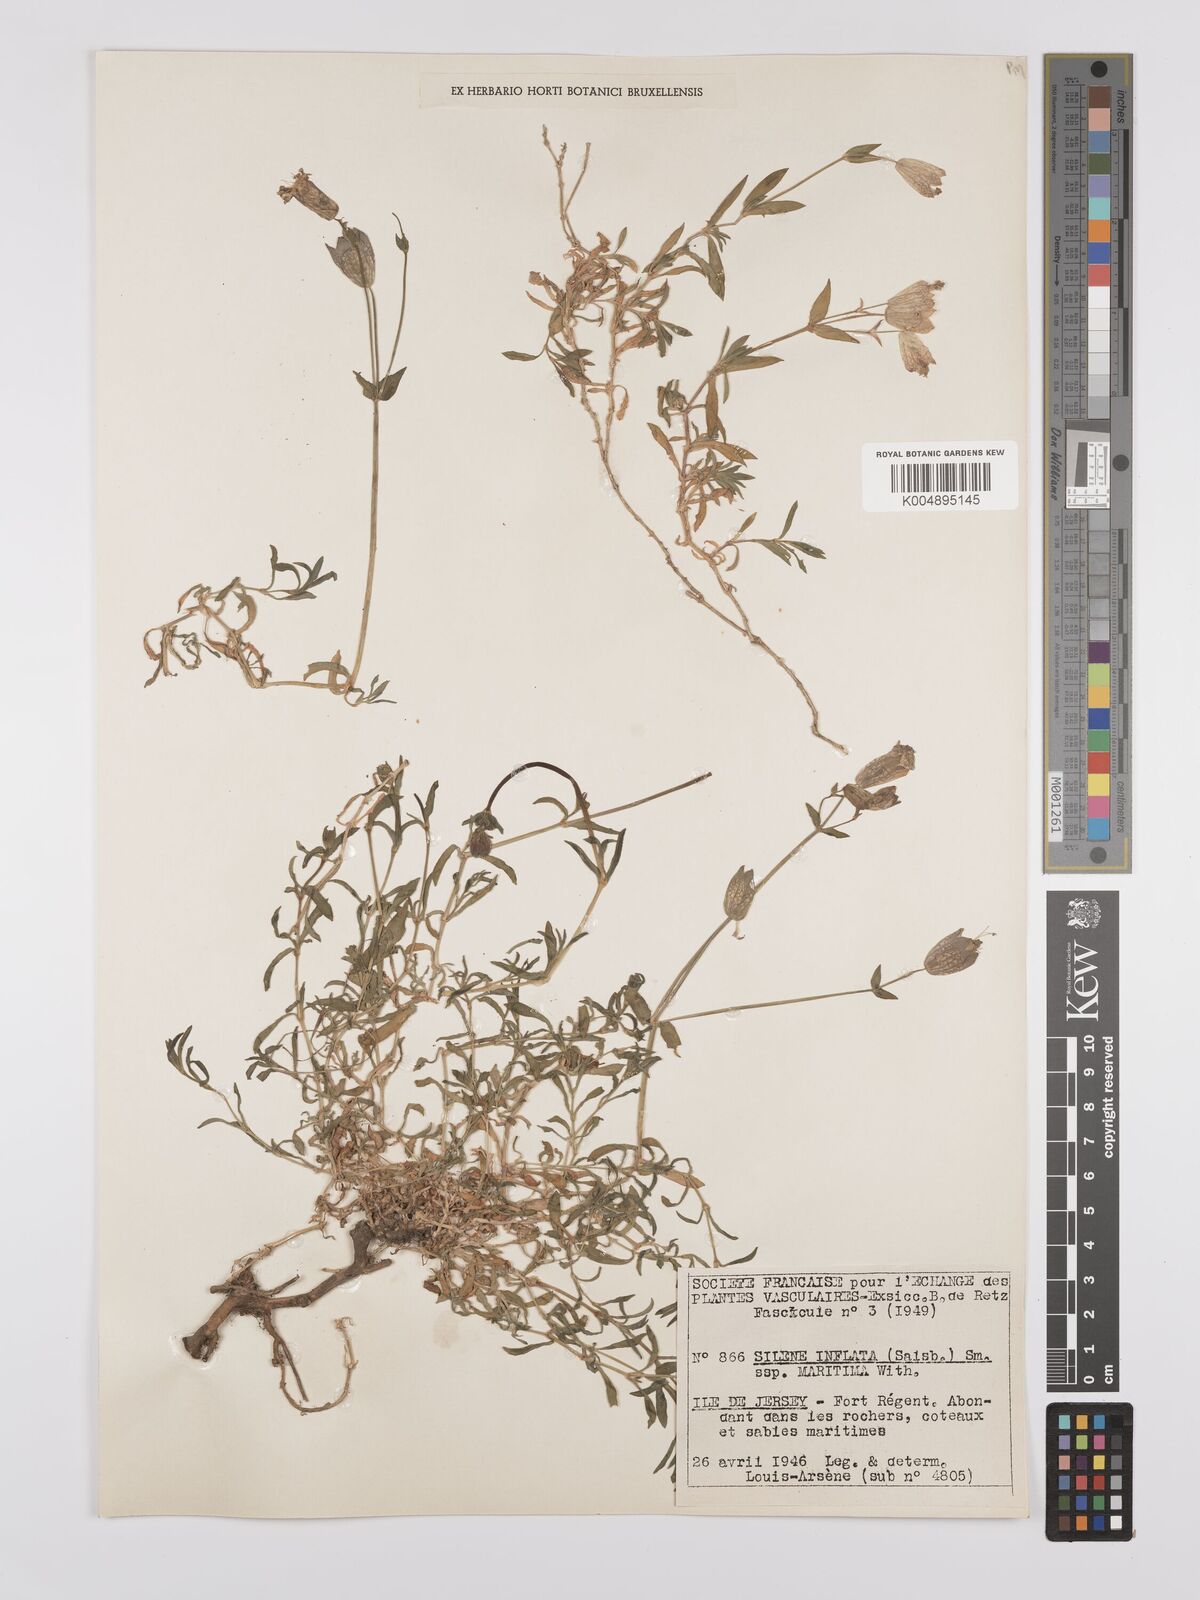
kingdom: Plantae
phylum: Tracheophyta
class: Magnoliopsida
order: Caryophyllales
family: Caryophyllaceae
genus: Silene
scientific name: Silene uniflora
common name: Sea campion
